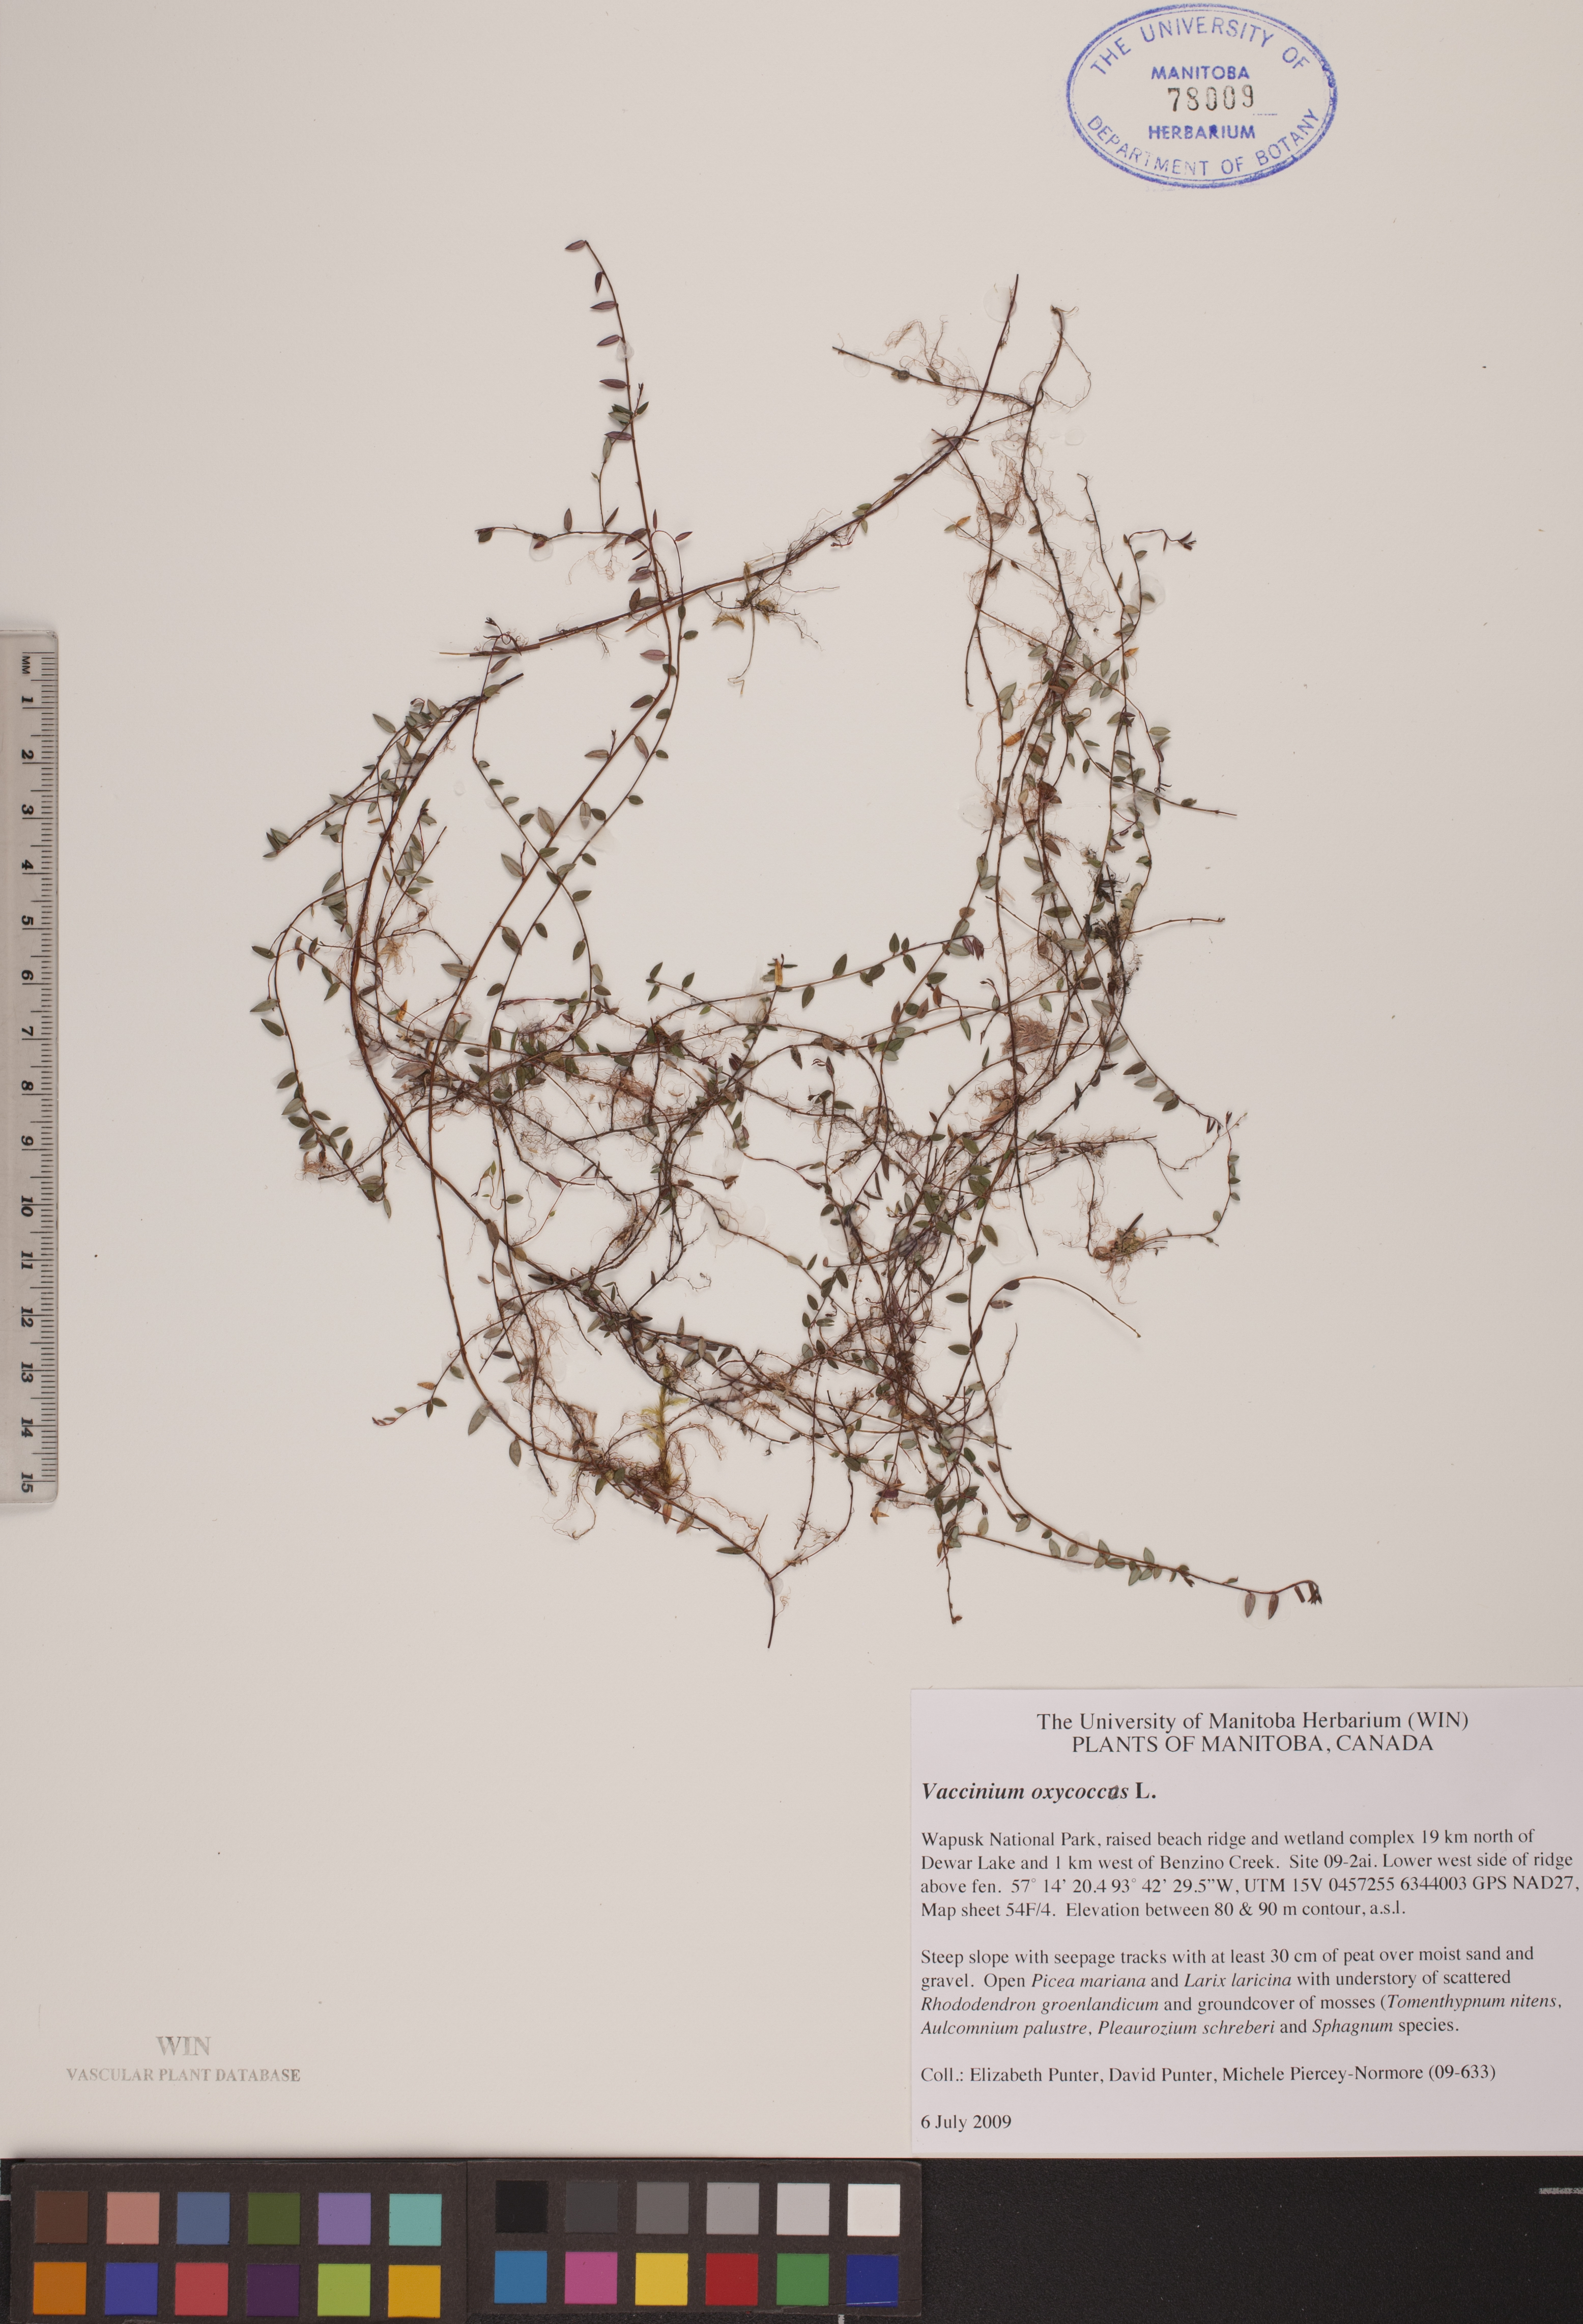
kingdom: Plantae
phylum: Tracheophyta
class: Magnoliopsida
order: Ericales
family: Ericaceae
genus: Vaccinium
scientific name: Vaccinium oxycoccos
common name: Cranberry
